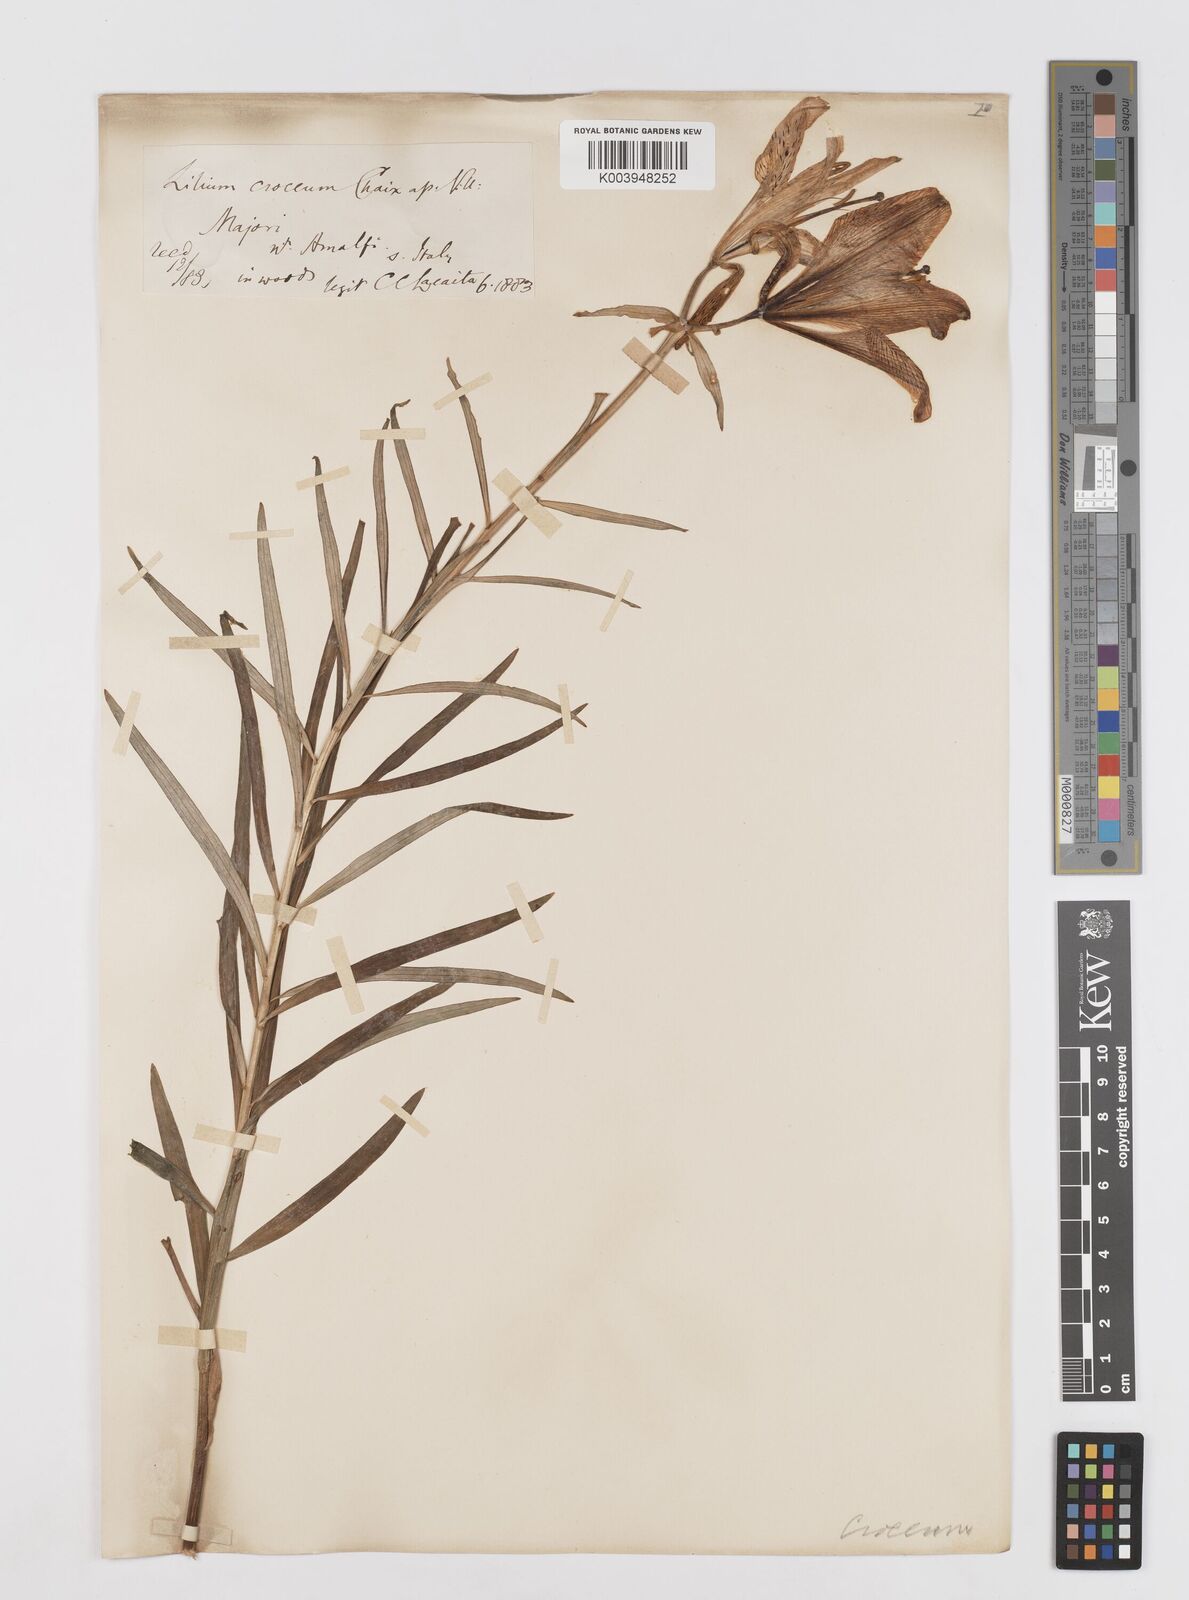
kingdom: Plantae
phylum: Tracheophyta
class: Liliopsida
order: Liliales
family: Liliaceae
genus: Lilium
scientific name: Lilium bulbiferum
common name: Orange lily
